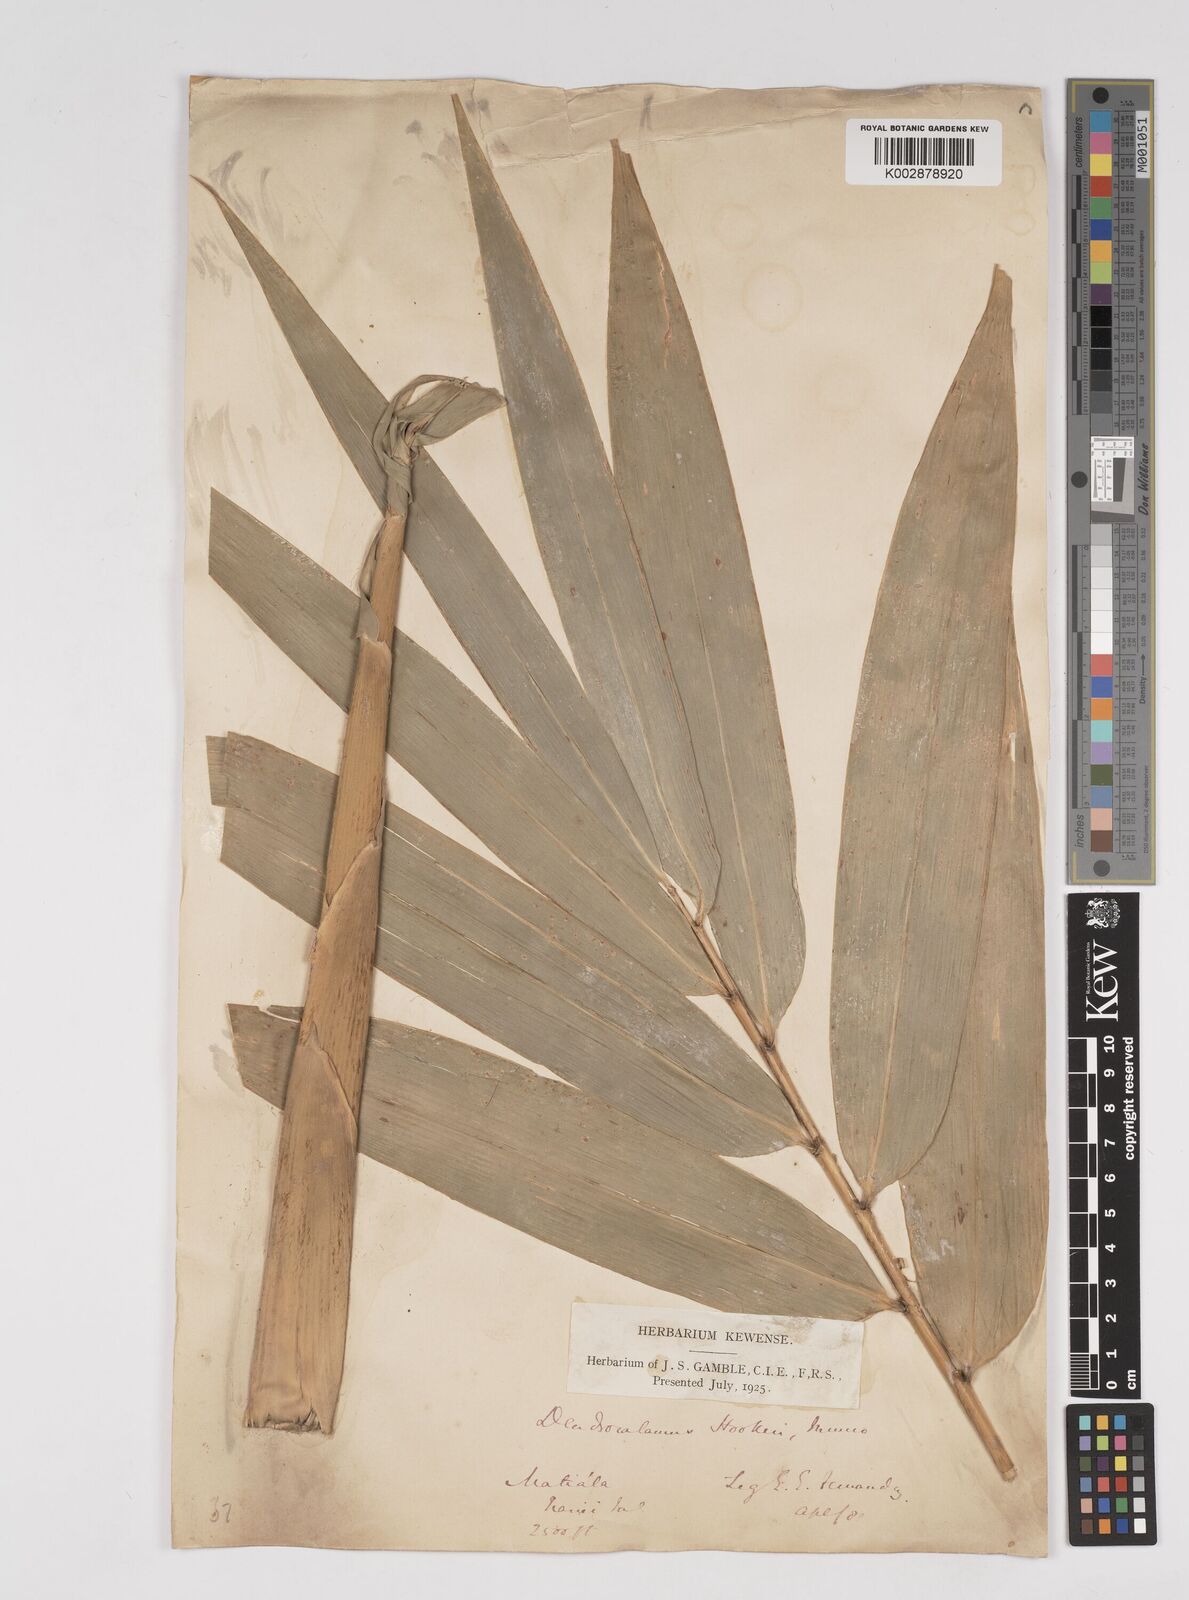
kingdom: Plantae
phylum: Tracheophyta
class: Liliopsida
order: Poales
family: Poaceae
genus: Dendrocalamus
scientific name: Dendrocalamus hookeri
